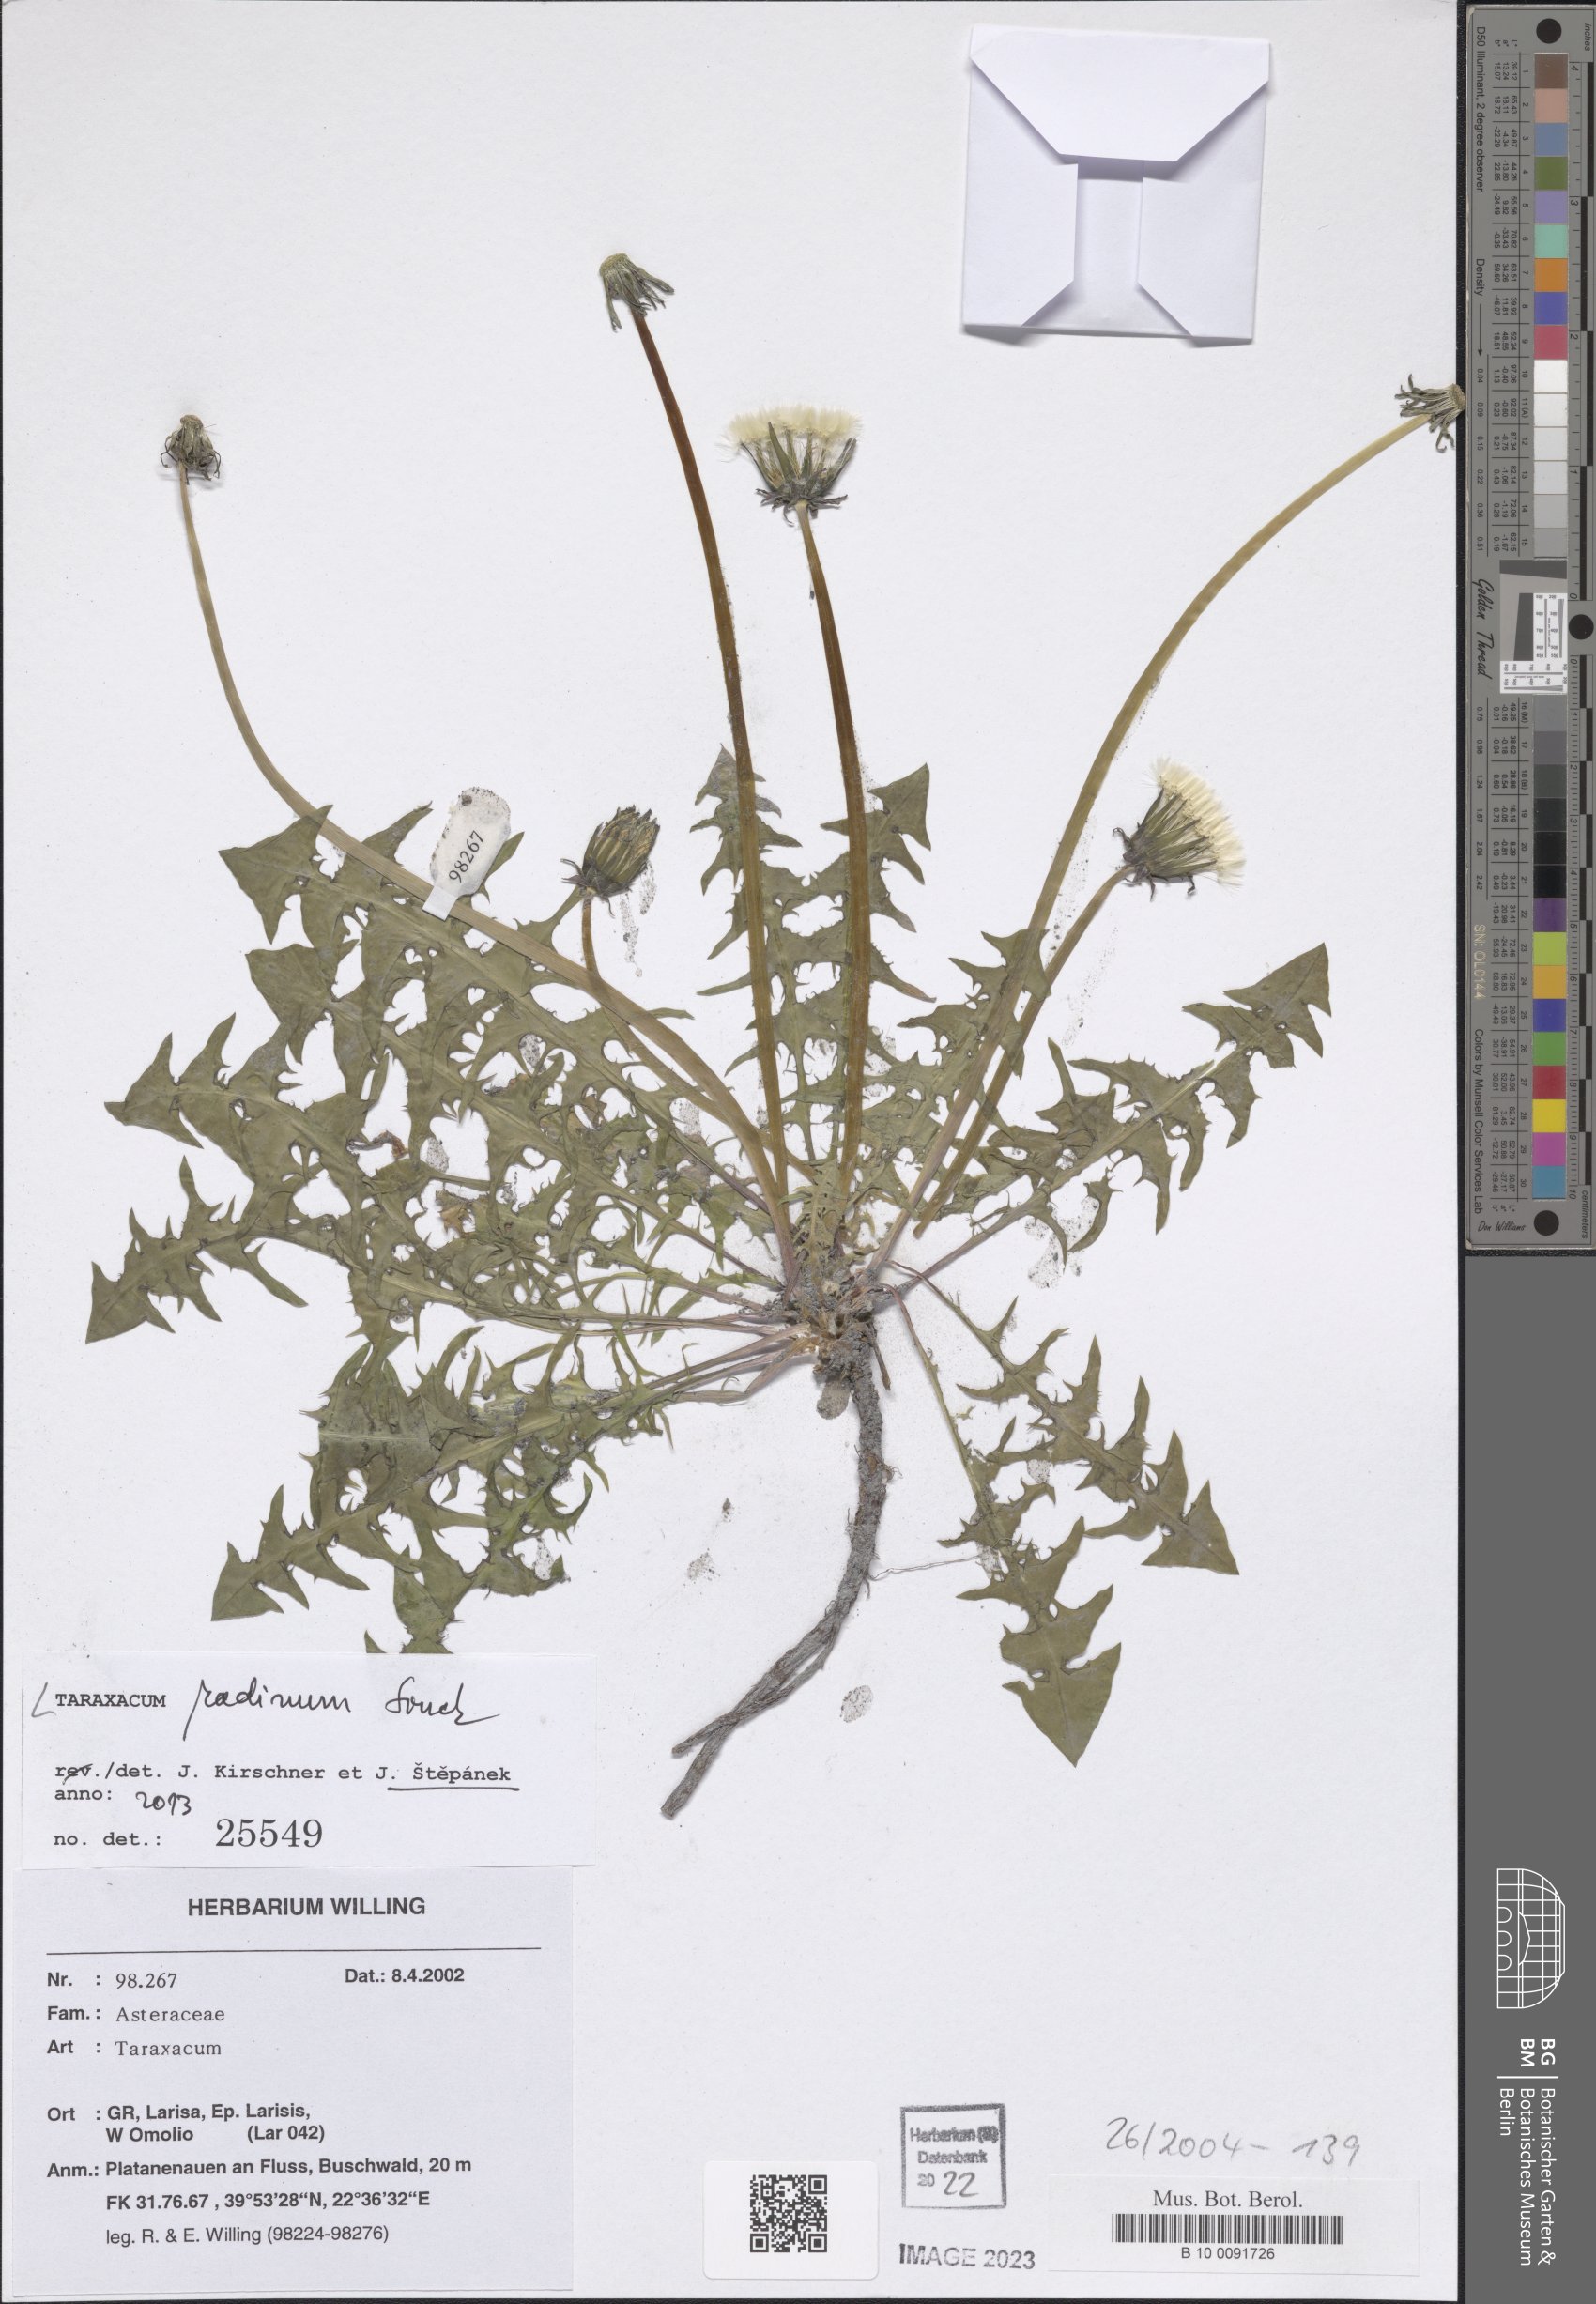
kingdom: Plantae
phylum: Tracheophyta
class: Magnoliopsida
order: Asterales
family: Asteraceae
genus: Taraxacum
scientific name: Taraxacum radinum
